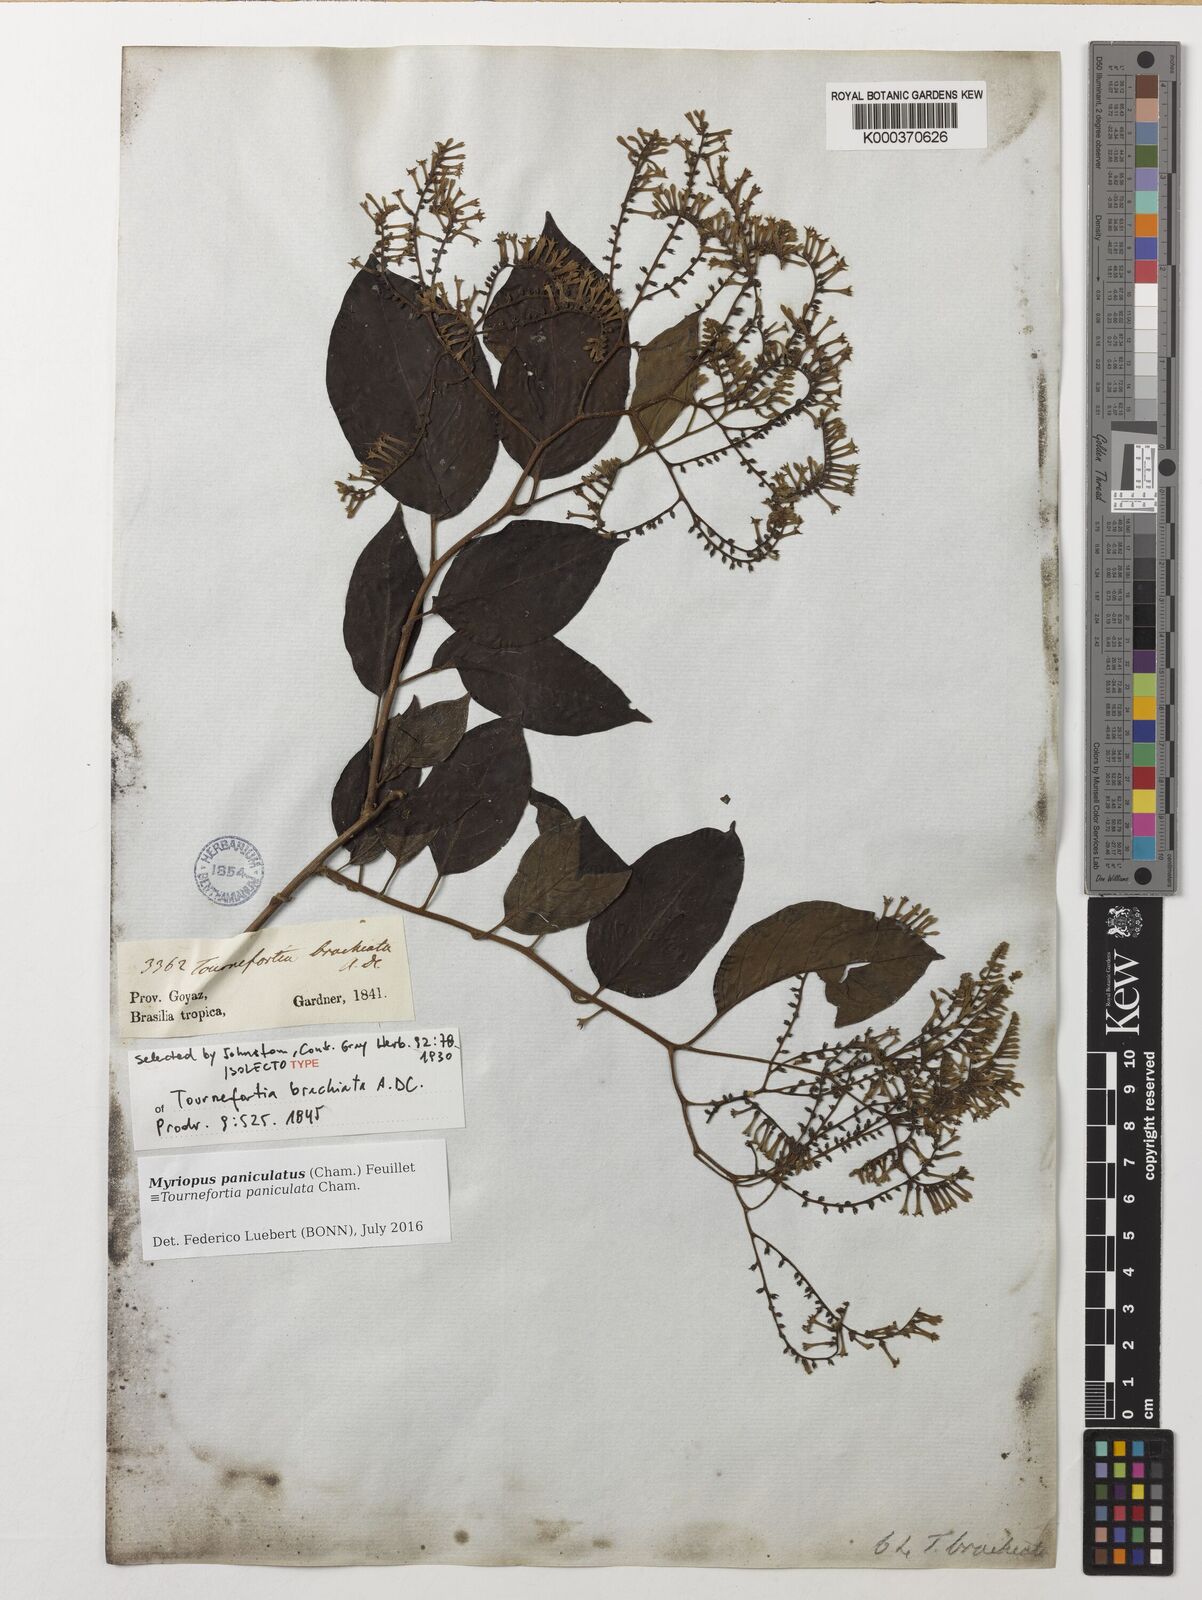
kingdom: Plantae
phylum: Tracheophyta
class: Magnoliopsida
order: Boraginales
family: Heliotropiaceae
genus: Myriopus
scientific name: Myriopus paniculatus
